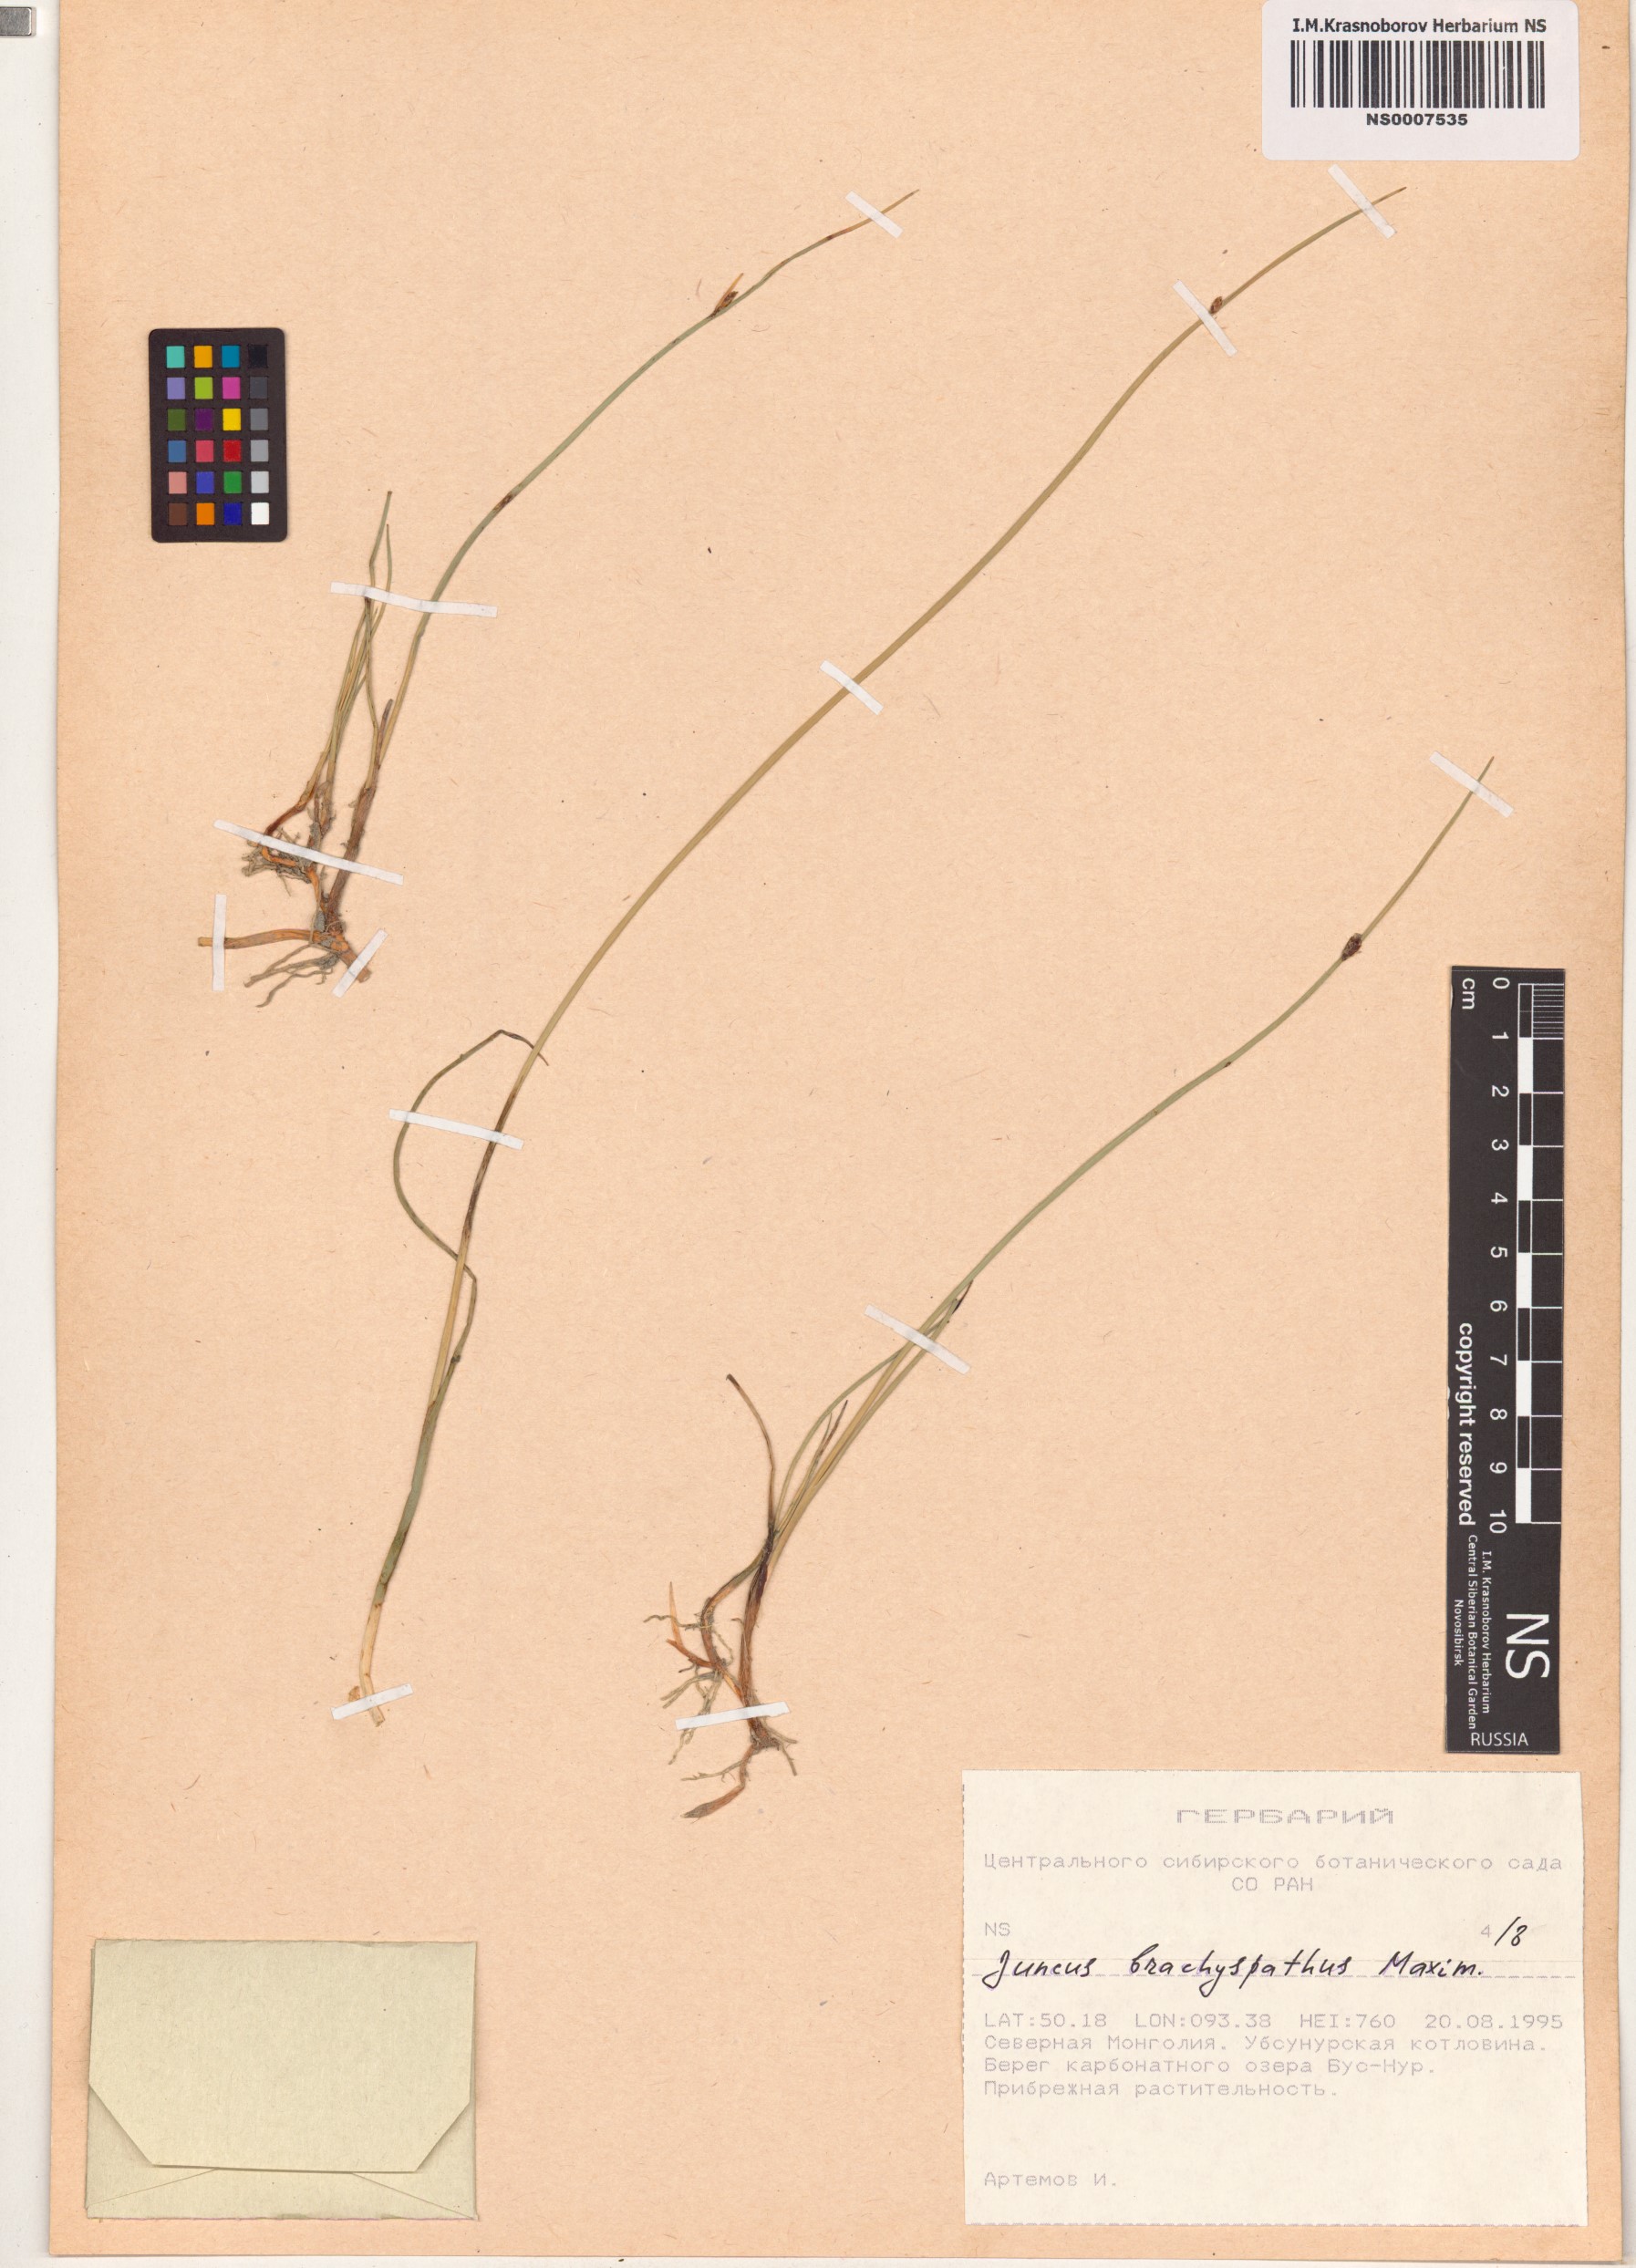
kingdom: Plantae
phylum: Tracheophyta
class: Liliopsida
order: Poales
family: Juncaceae
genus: Juncus
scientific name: Juncus brachyspathus
